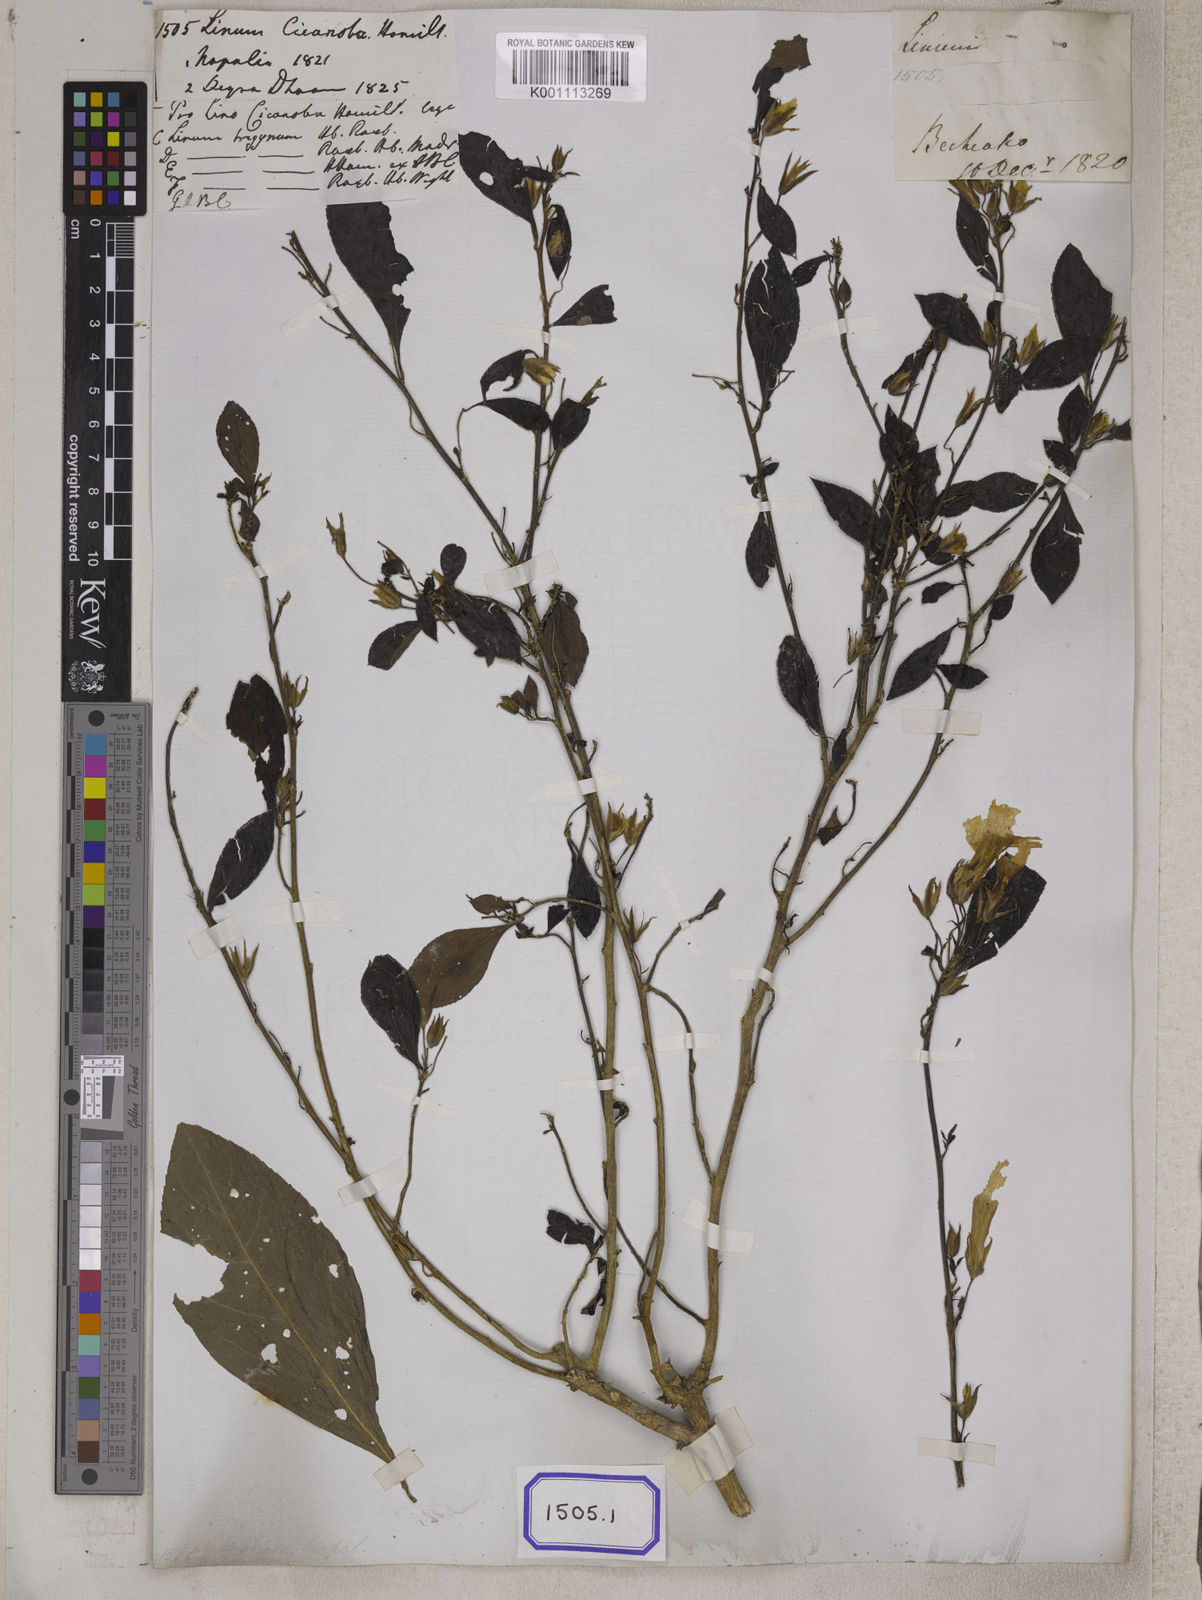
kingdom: Plantae
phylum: Tracheophyta
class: Magnoliopsida
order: Malpighiales
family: Linaceae
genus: Linum
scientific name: Linum
